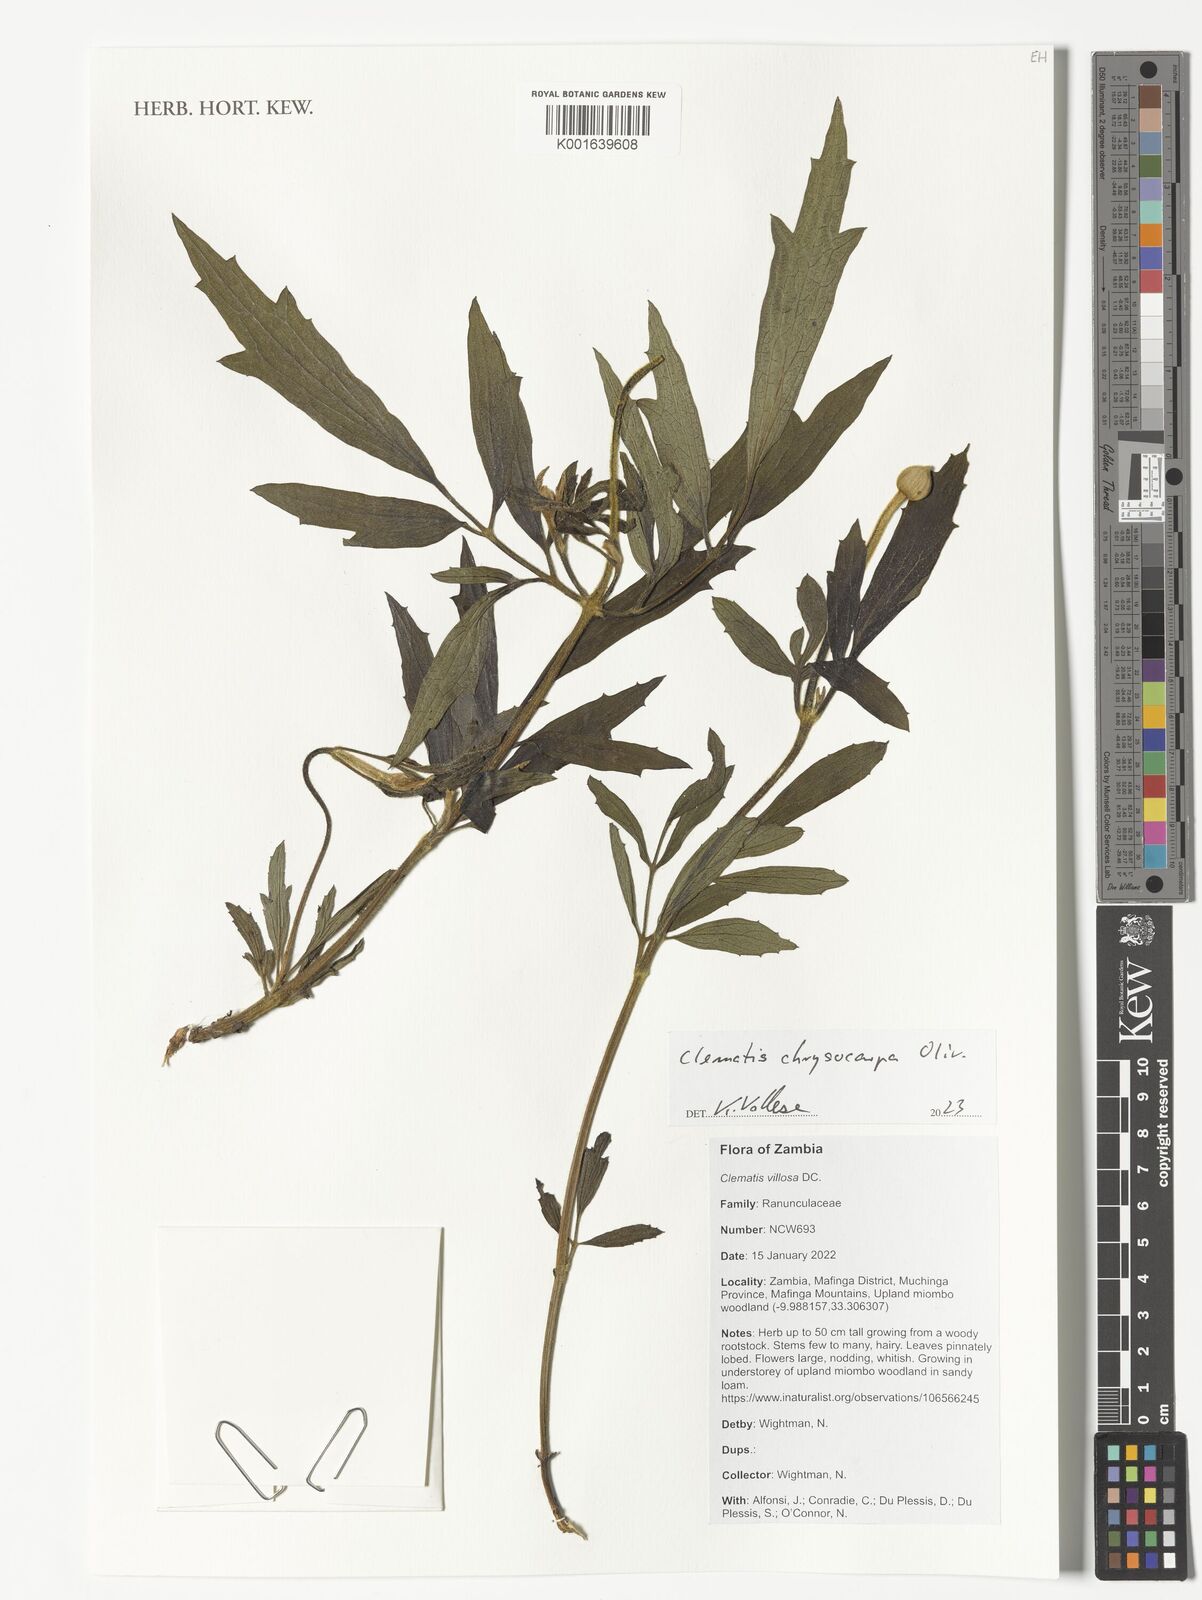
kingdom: Plantae
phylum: Tracheophyta
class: Magnoliopsida
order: Ranunculales
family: Ranunculaceae
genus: Clematis
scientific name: Clematis chrysocarpa
